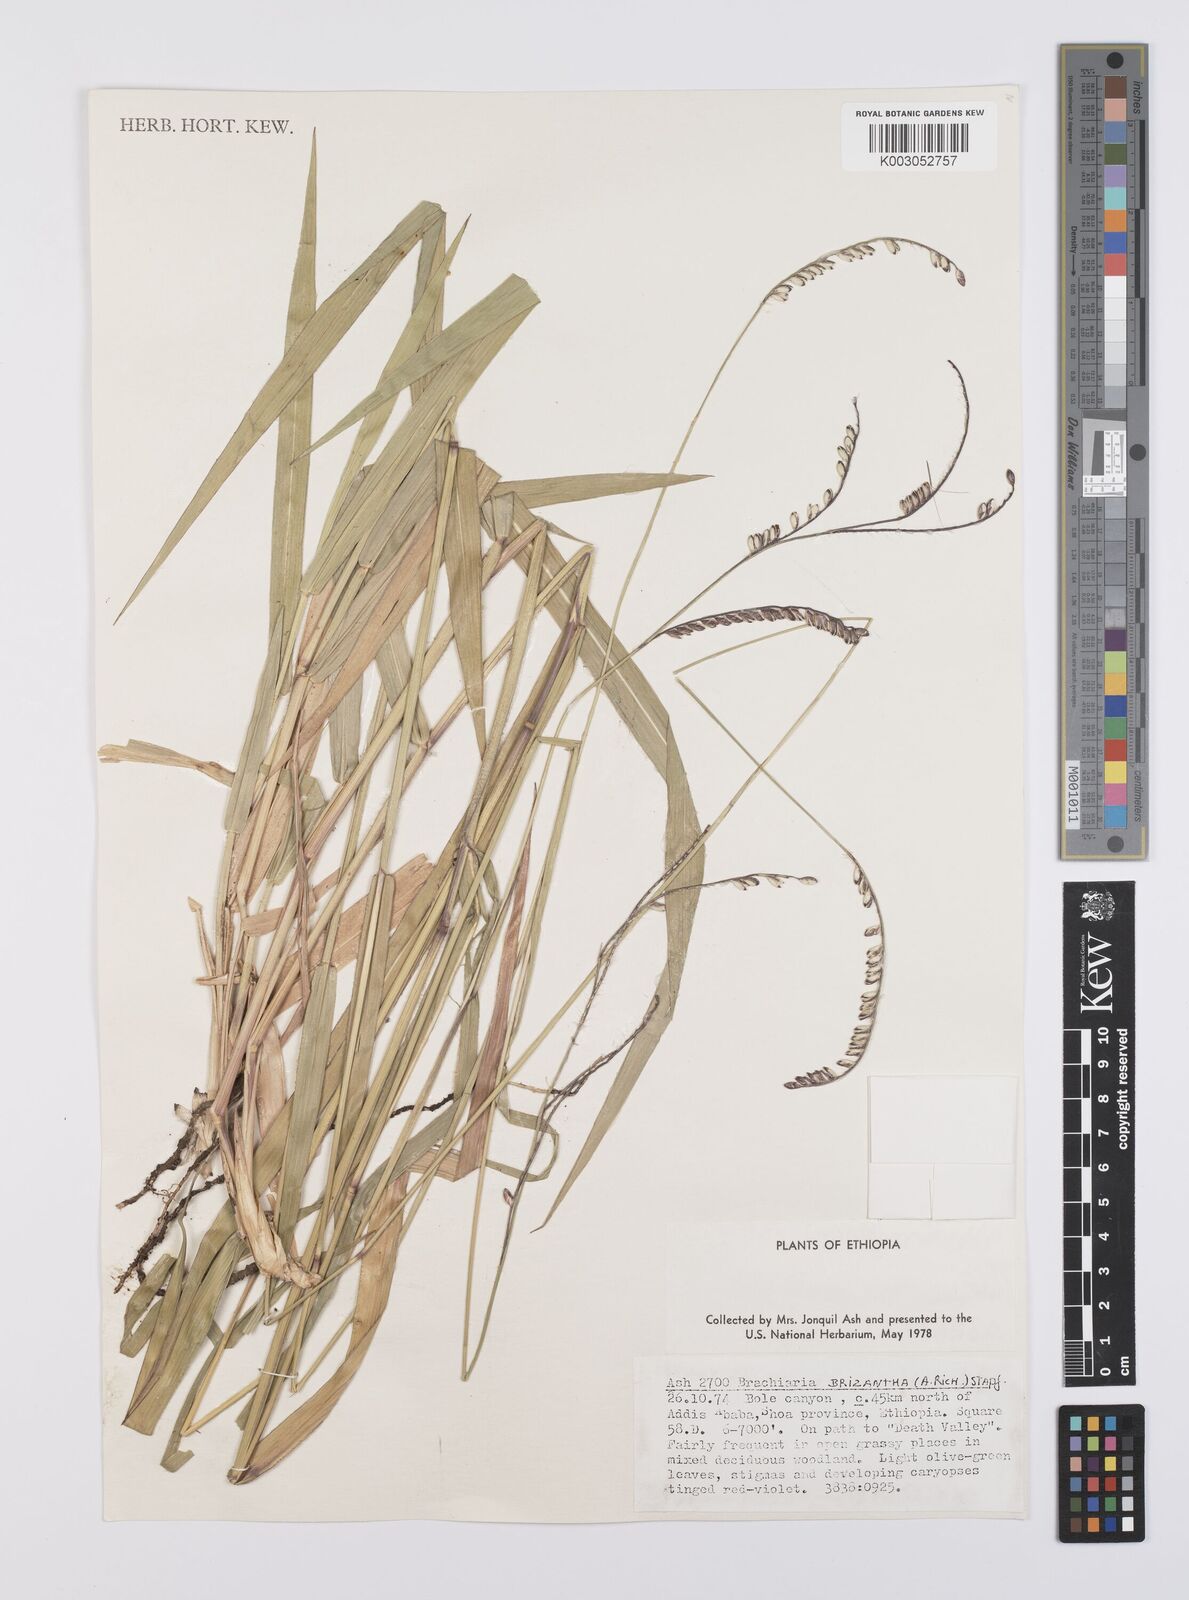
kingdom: Plantae
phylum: Tracheophyta
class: Liliopsida
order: Poales
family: Poaceae
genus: Urochloa
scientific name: Urochloa brizantha
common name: Palisade signalgrass
